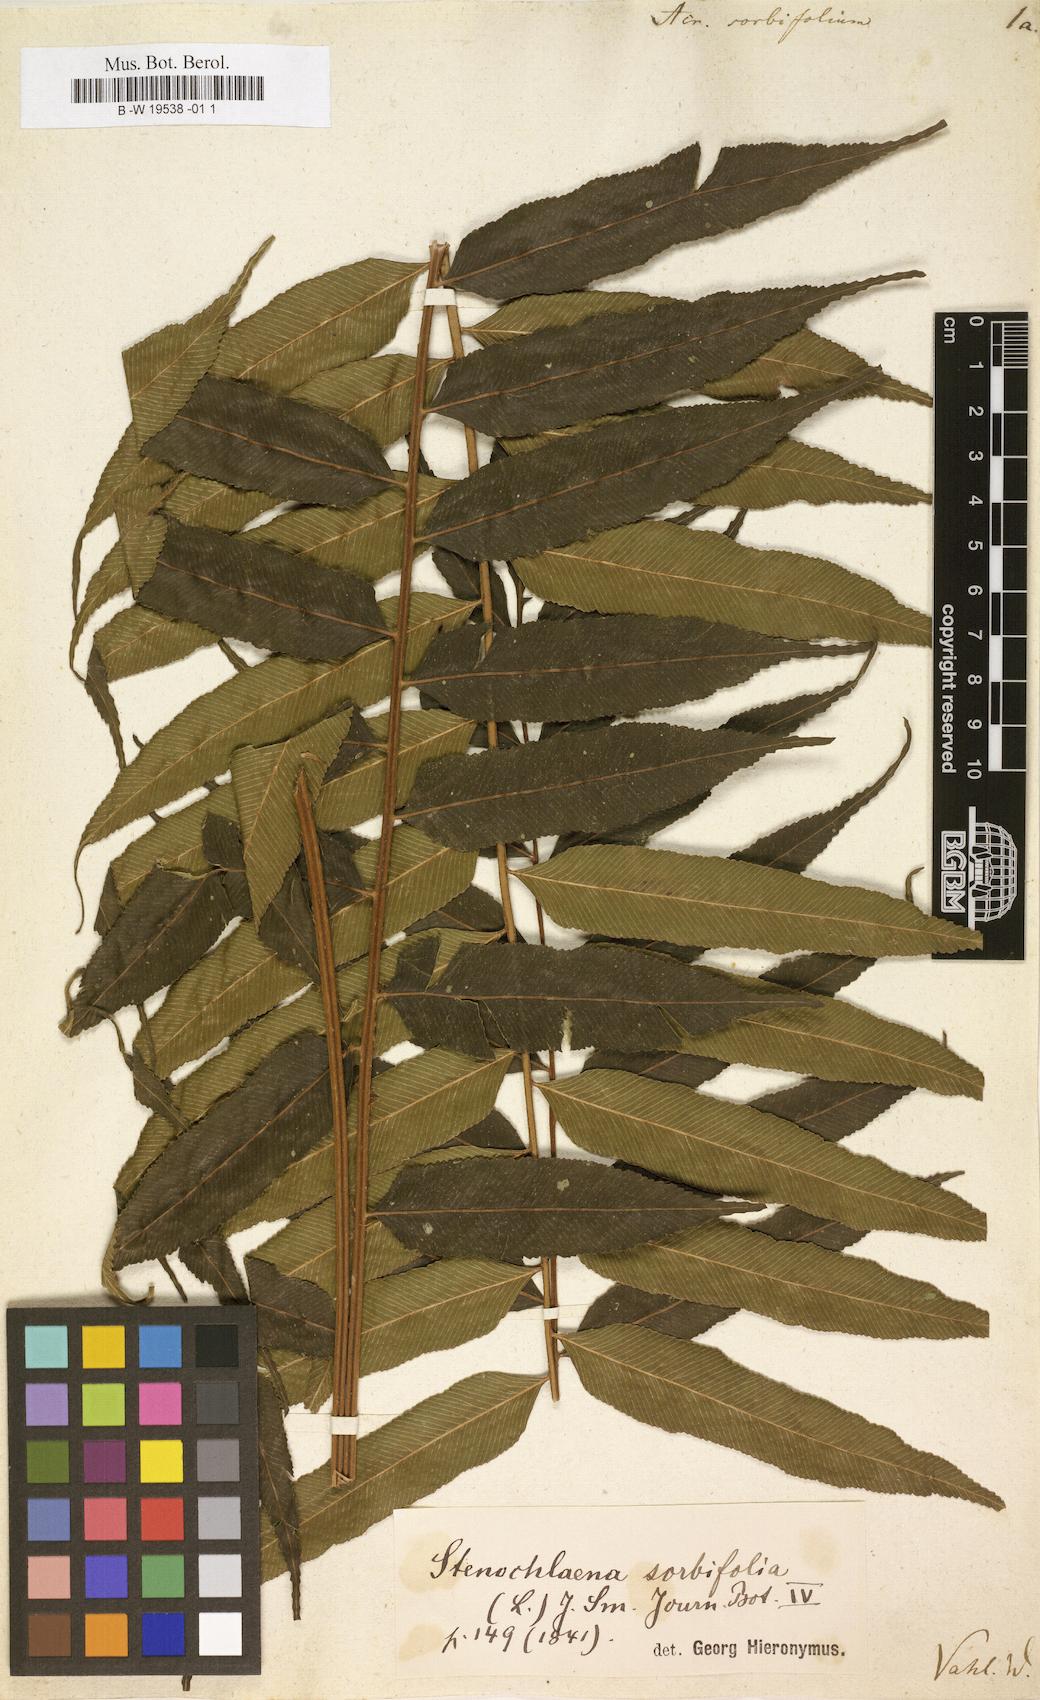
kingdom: Plantae
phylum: Tracheophyta
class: Polypodiopsida
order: Polypodiales
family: Pteridaceae
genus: Acrostichum
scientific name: Acrostichum
